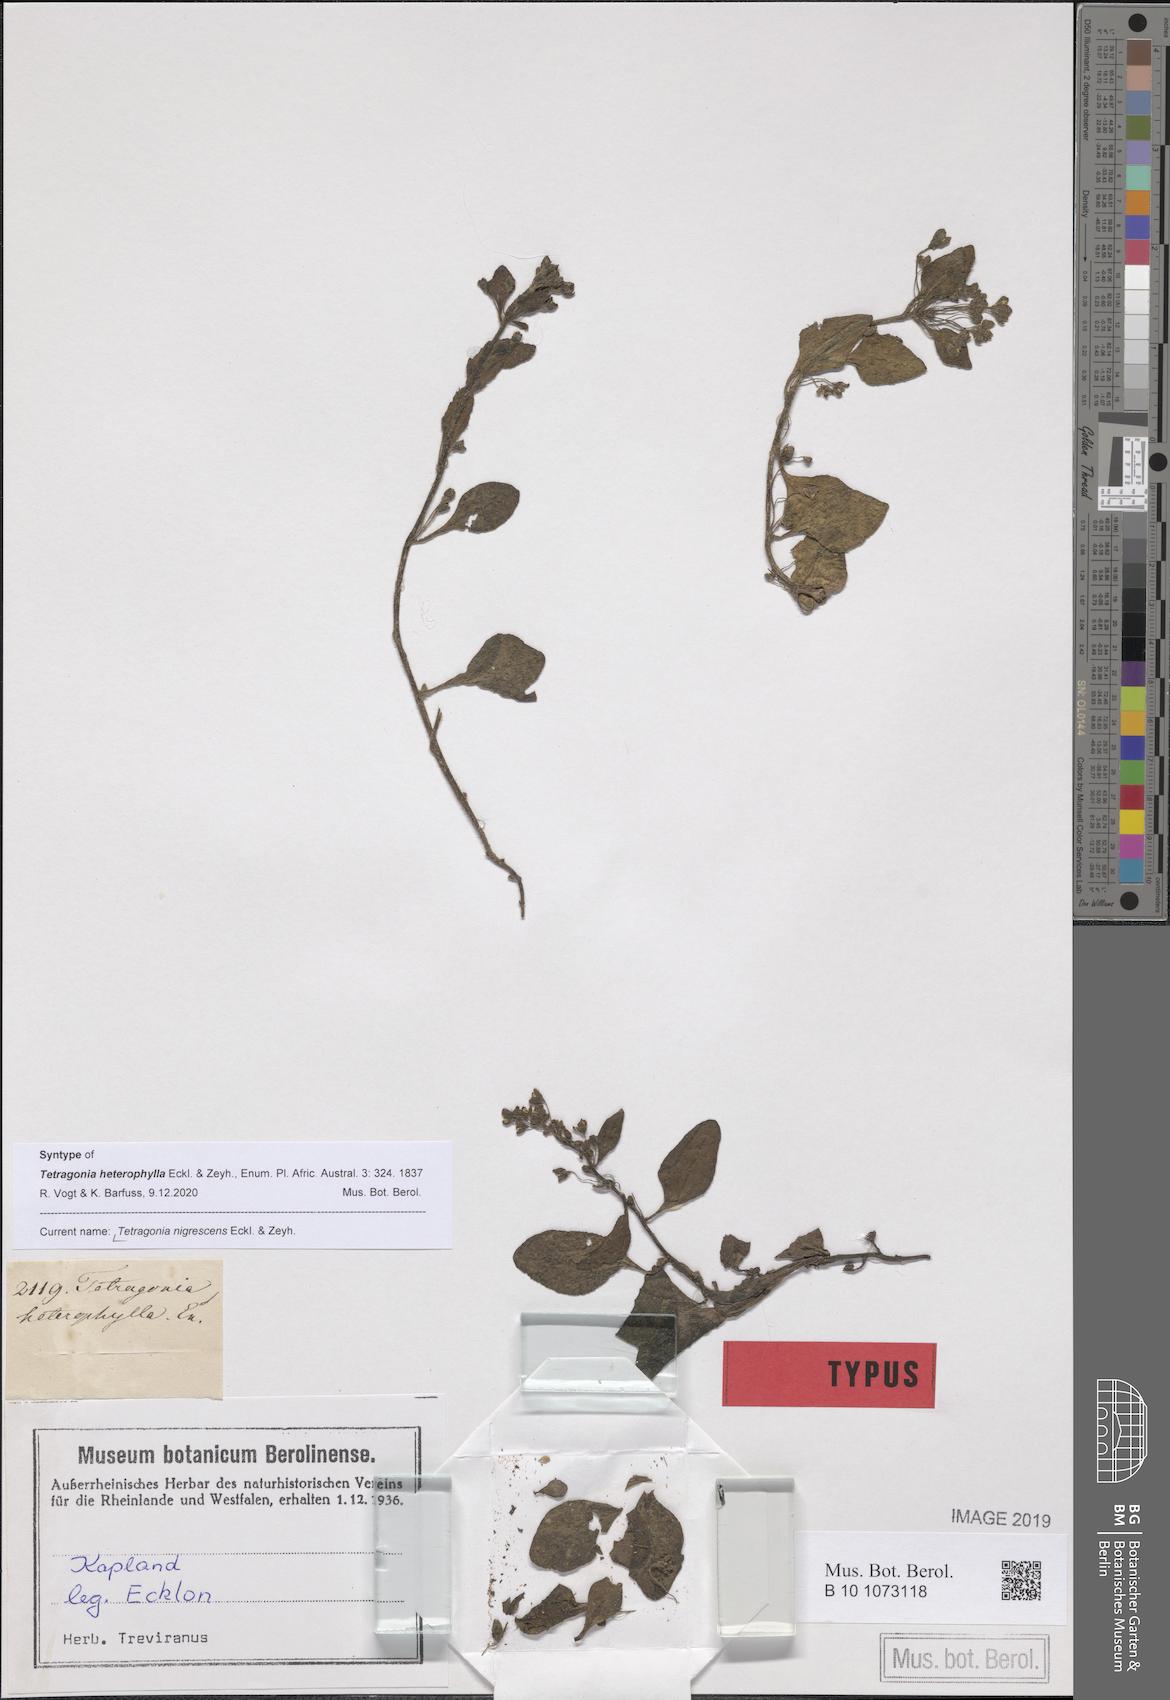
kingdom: Plantae
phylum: Tracheophyta
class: Magnoliopsida
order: Caryophyllales
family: Aizoaceae
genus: Tetragonia
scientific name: Tetragonia nigrescens
